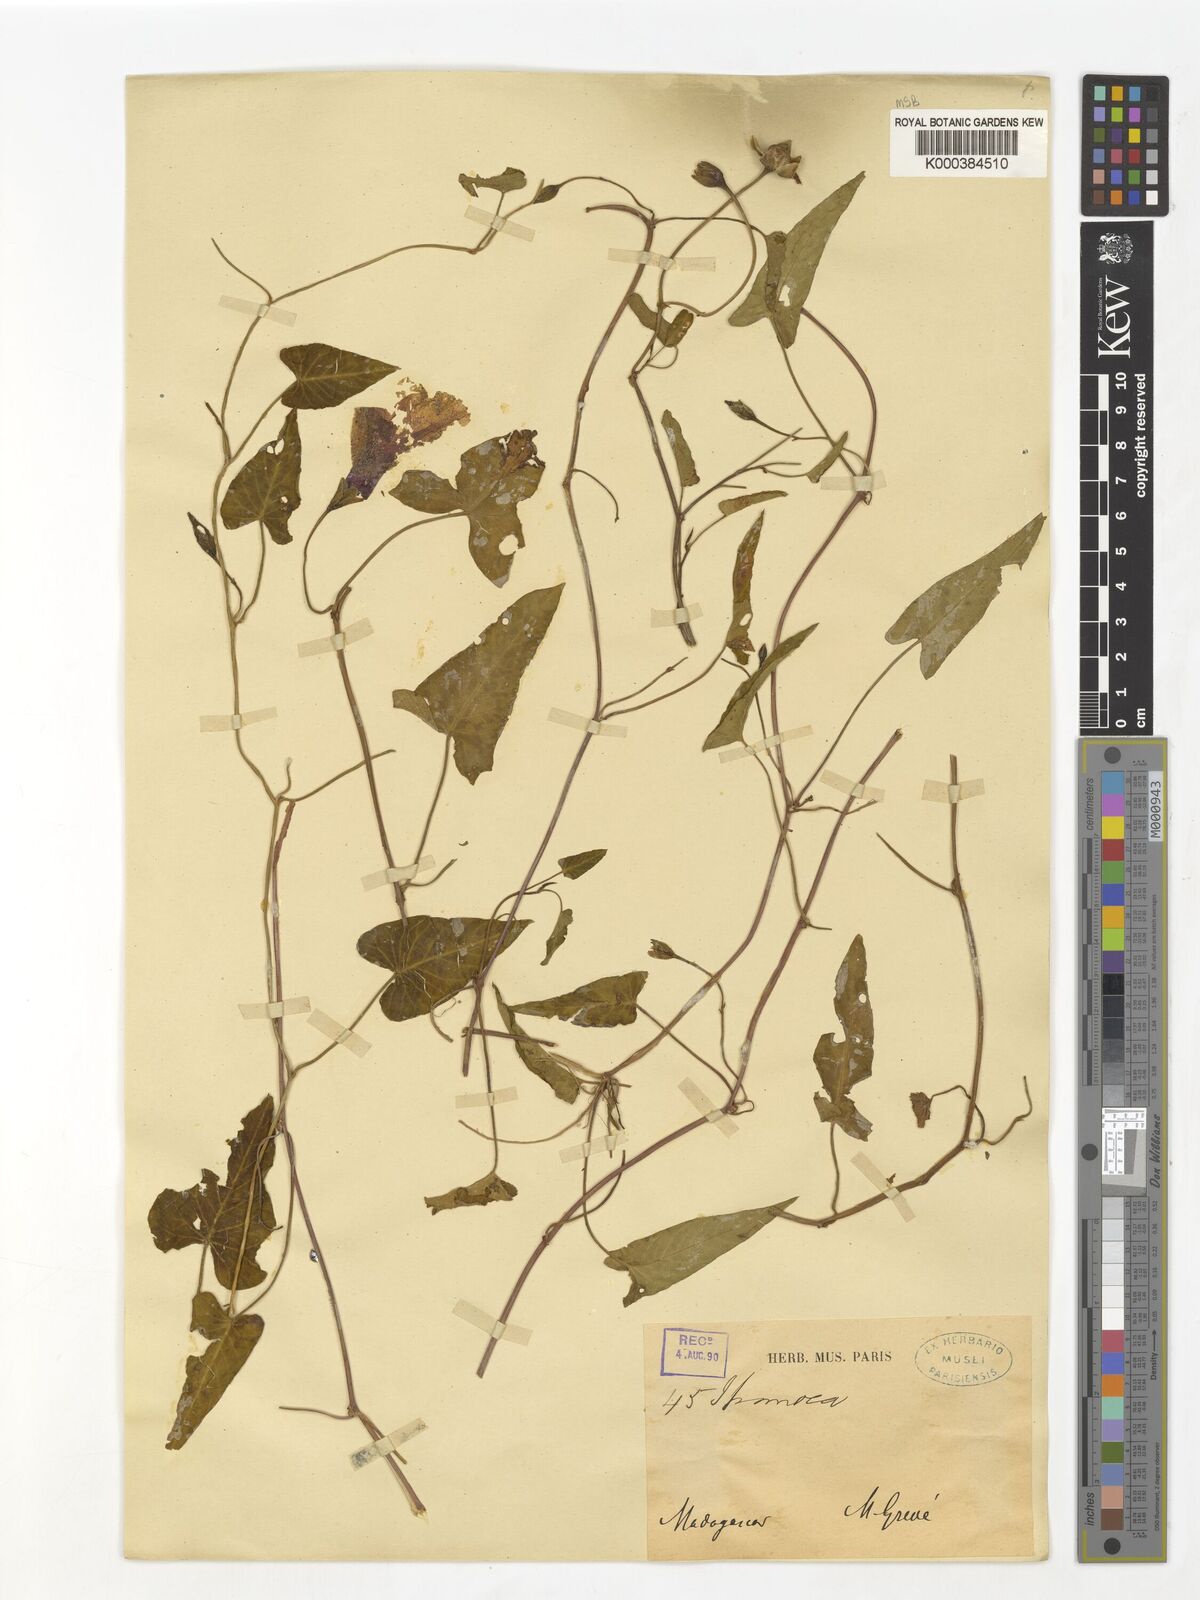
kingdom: Plantae
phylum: Tracheophyta
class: Magnoliopsida
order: Solanales
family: Convolvulaceae
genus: Ipomoea
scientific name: Ipomoea aquatica
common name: Swamp morning-glory
